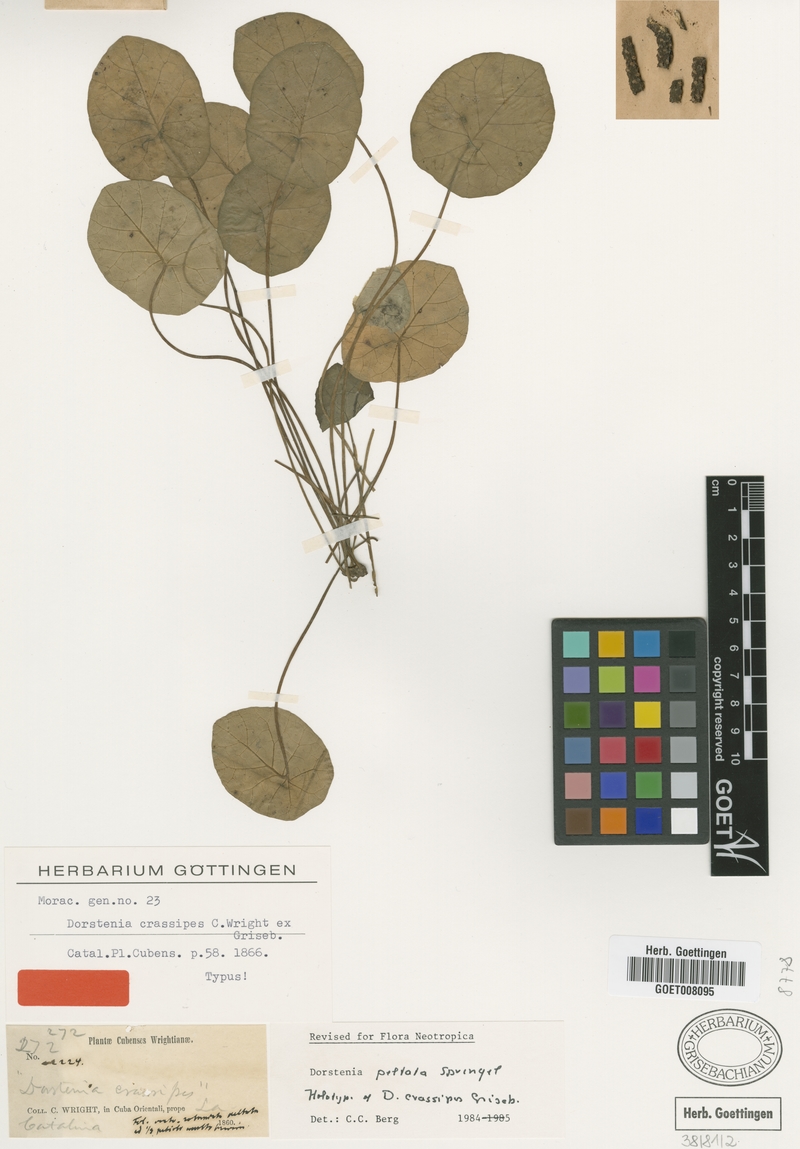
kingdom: Plantae
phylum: Tracheophyta
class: Magnoliopsida
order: Rosales
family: Moraceae
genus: Dorstenia
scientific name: Dorstenia peltata
